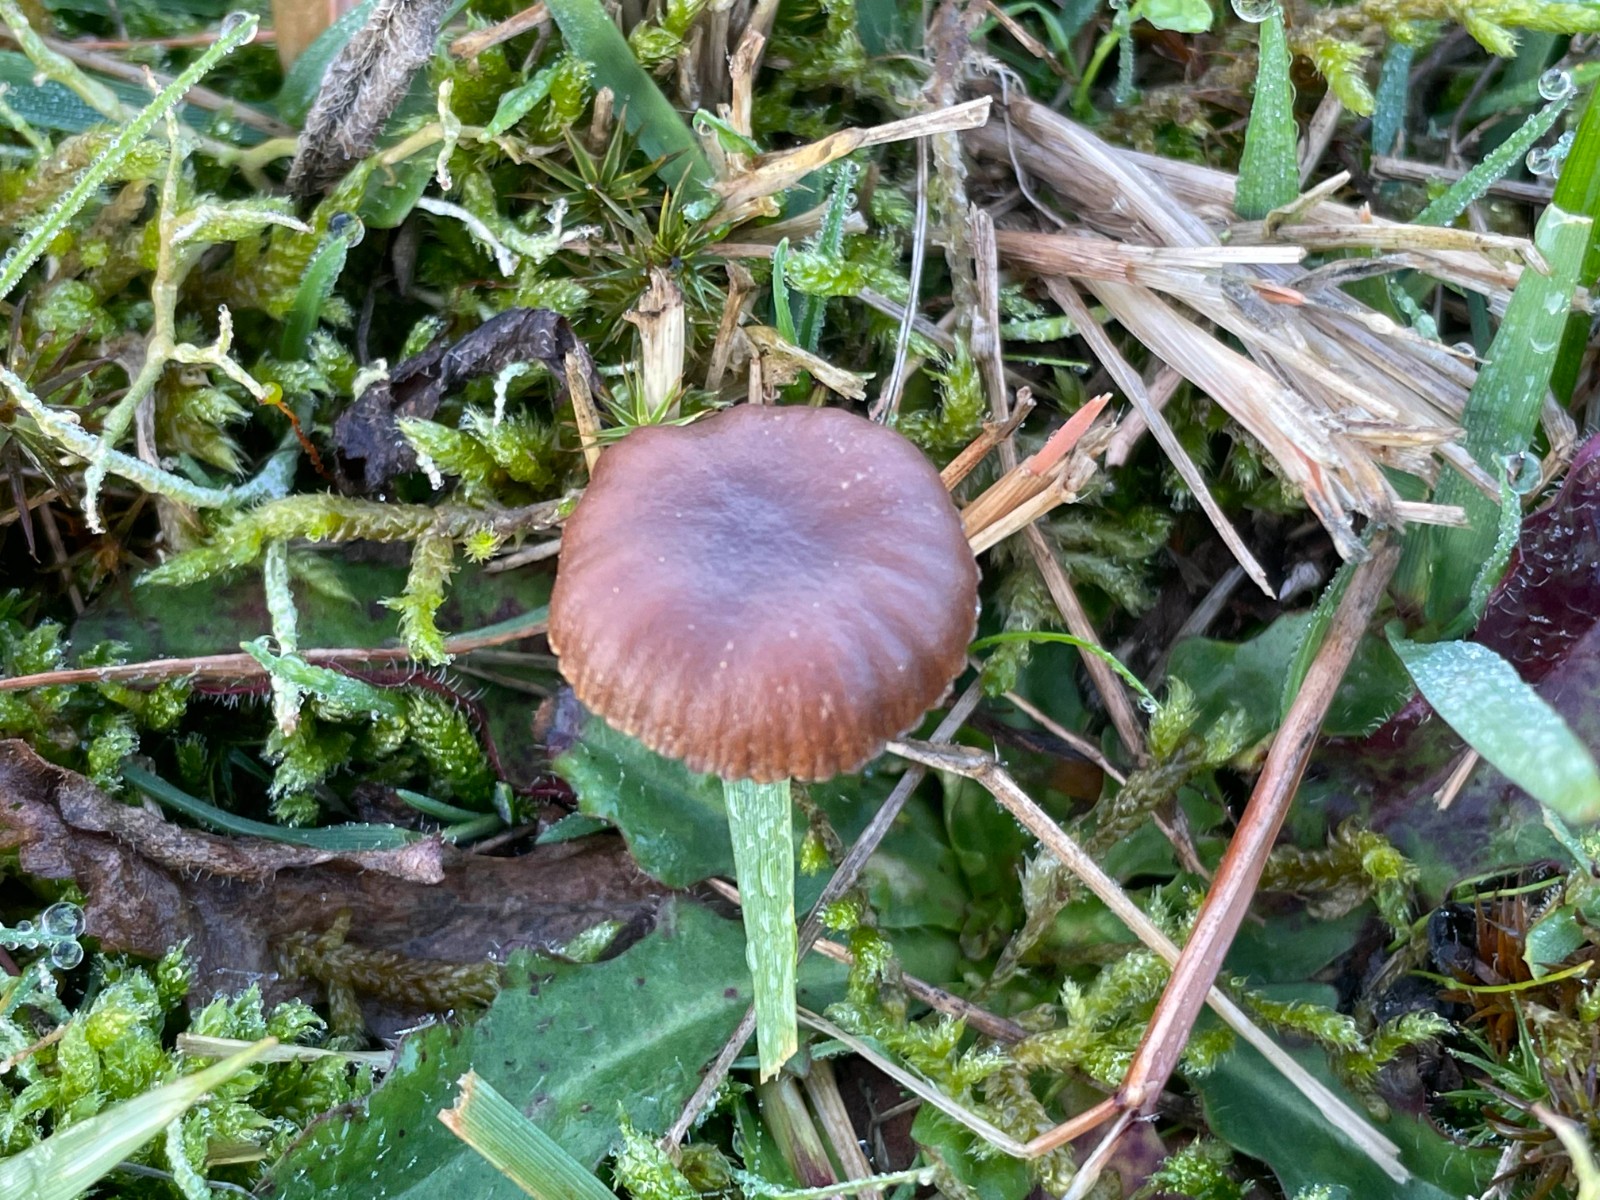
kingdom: Fungi
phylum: Basidiomycota
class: Agaricomycetes
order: Agaricales
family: Strophariaceae
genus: Deconica
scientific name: Deconica montana
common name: rødbrun stråhat
